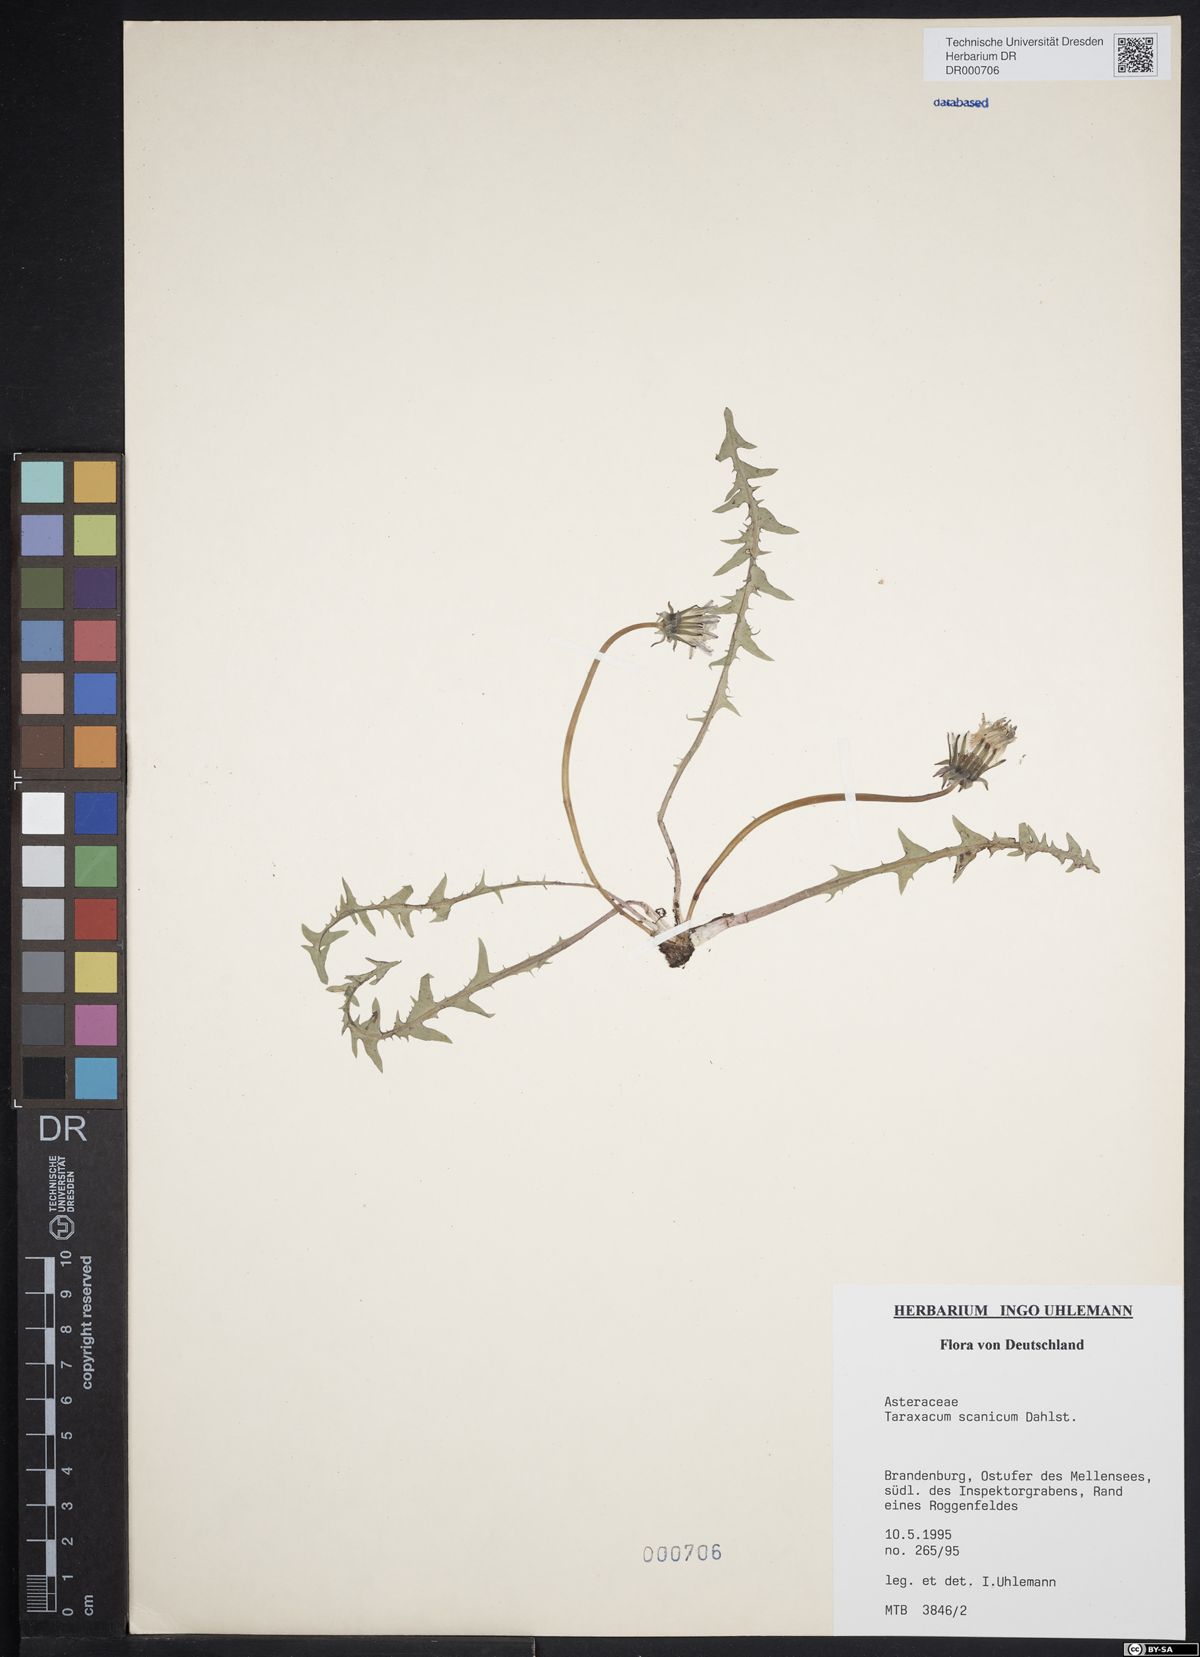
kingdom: Plantae
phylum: Tracheophyta
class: Magnoliopsida
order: Asterales
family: Asteraceae
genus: Taraxacum
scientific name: Taraxacum scanicum
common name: Skåne dandelion
